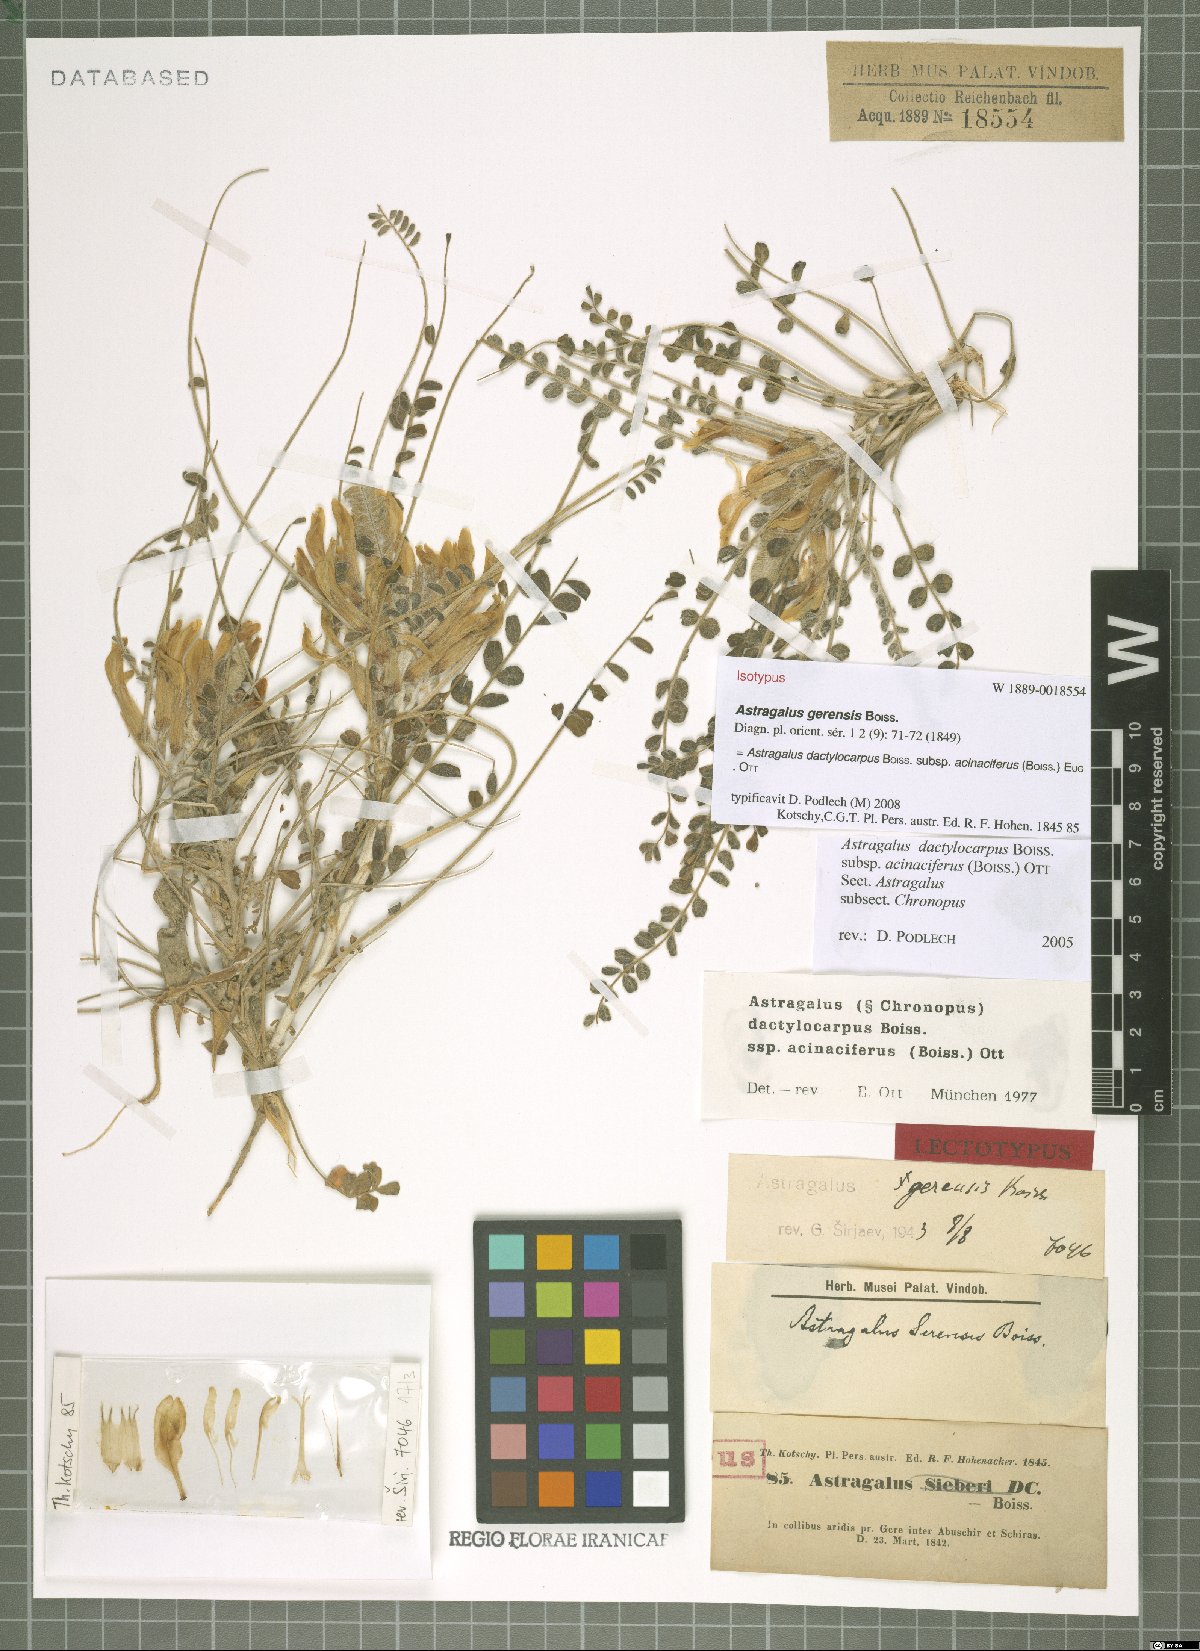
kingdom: Plantae
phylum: Tracheophyta
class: Magnoliopsida
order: Fabales
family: Fabaceae
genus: Astragalus
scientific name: Astragalus dactylocarpus
